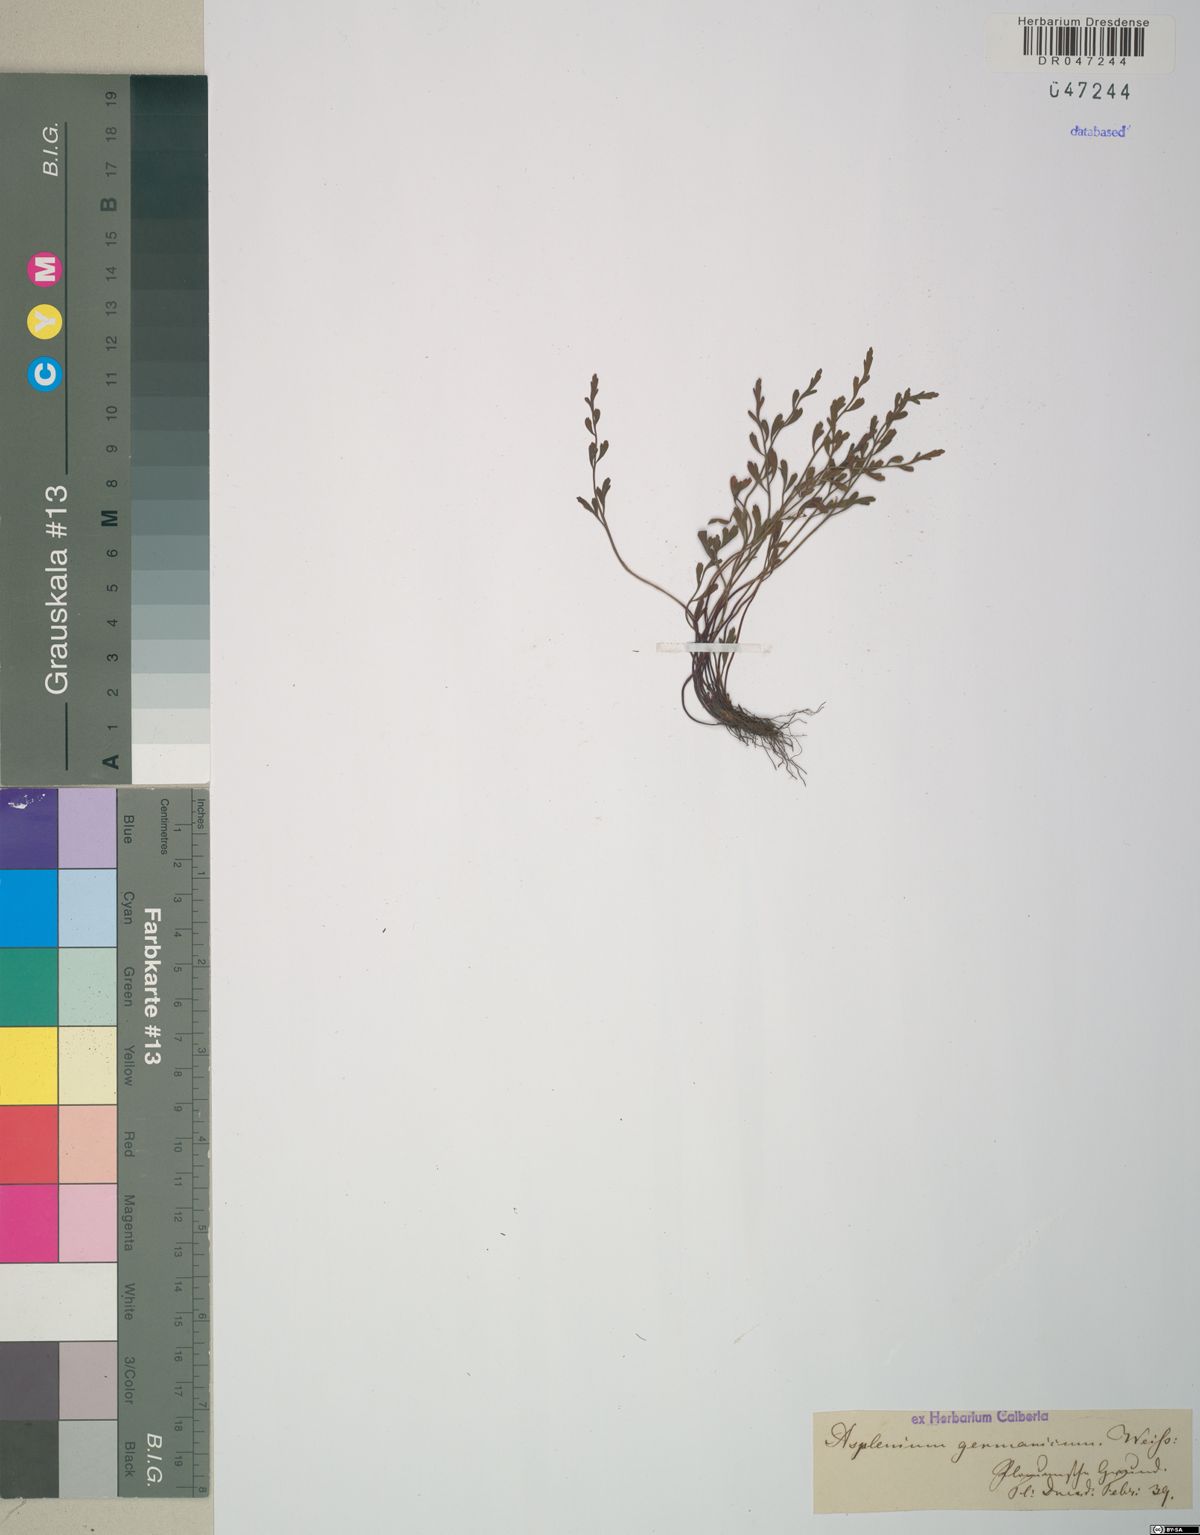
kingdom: Plantae
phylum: Tracheophyta
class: Polypodiopsida
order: Polypodiales
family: Aspleniaceae
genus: Asplenium
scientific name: Asplenium
